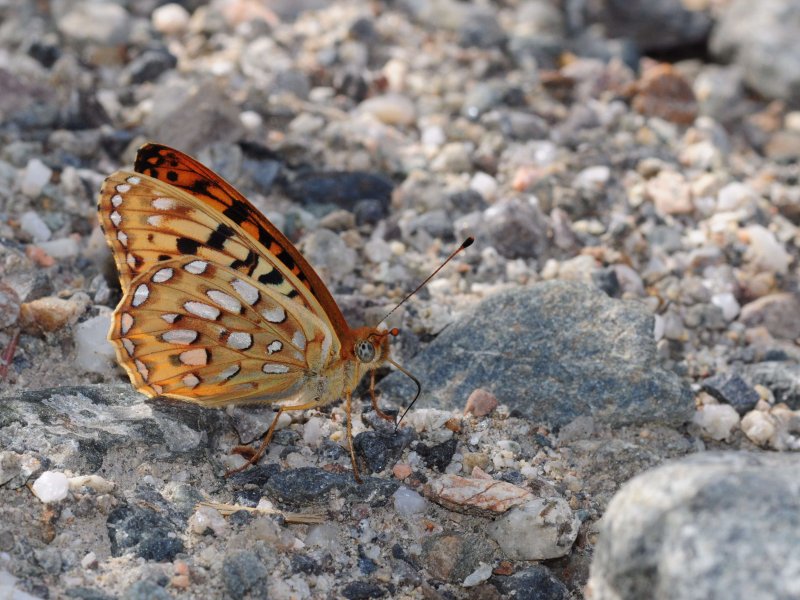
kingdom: Animalia
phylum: Arthropoda
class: Insecta
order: Lepidoptera
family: Nymphalidae
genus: Speyeria
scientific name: Speyeria zerene
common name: Zerene Fritillary
